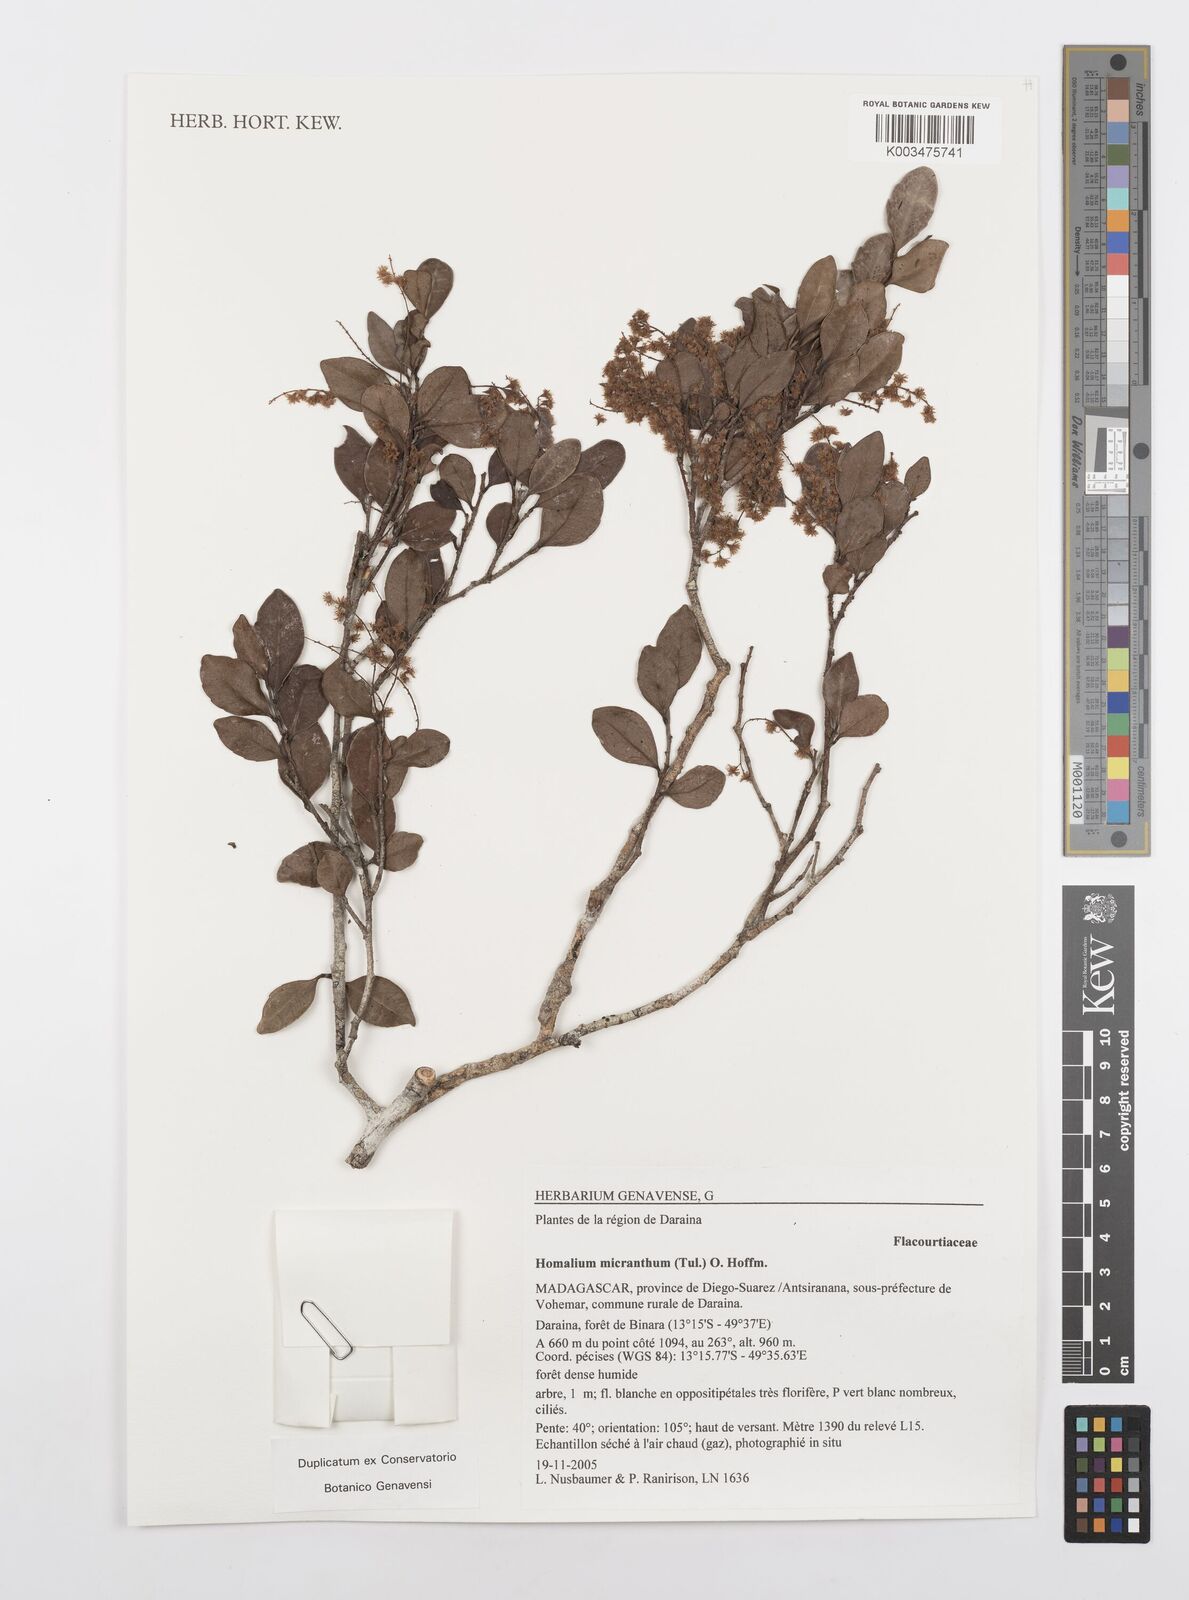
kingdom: Plantae
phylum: Tracheophyta
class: Magnoliopsida
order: Malpighiales
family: Salicaceae
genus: Homalium
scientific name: Homalium micranthum
